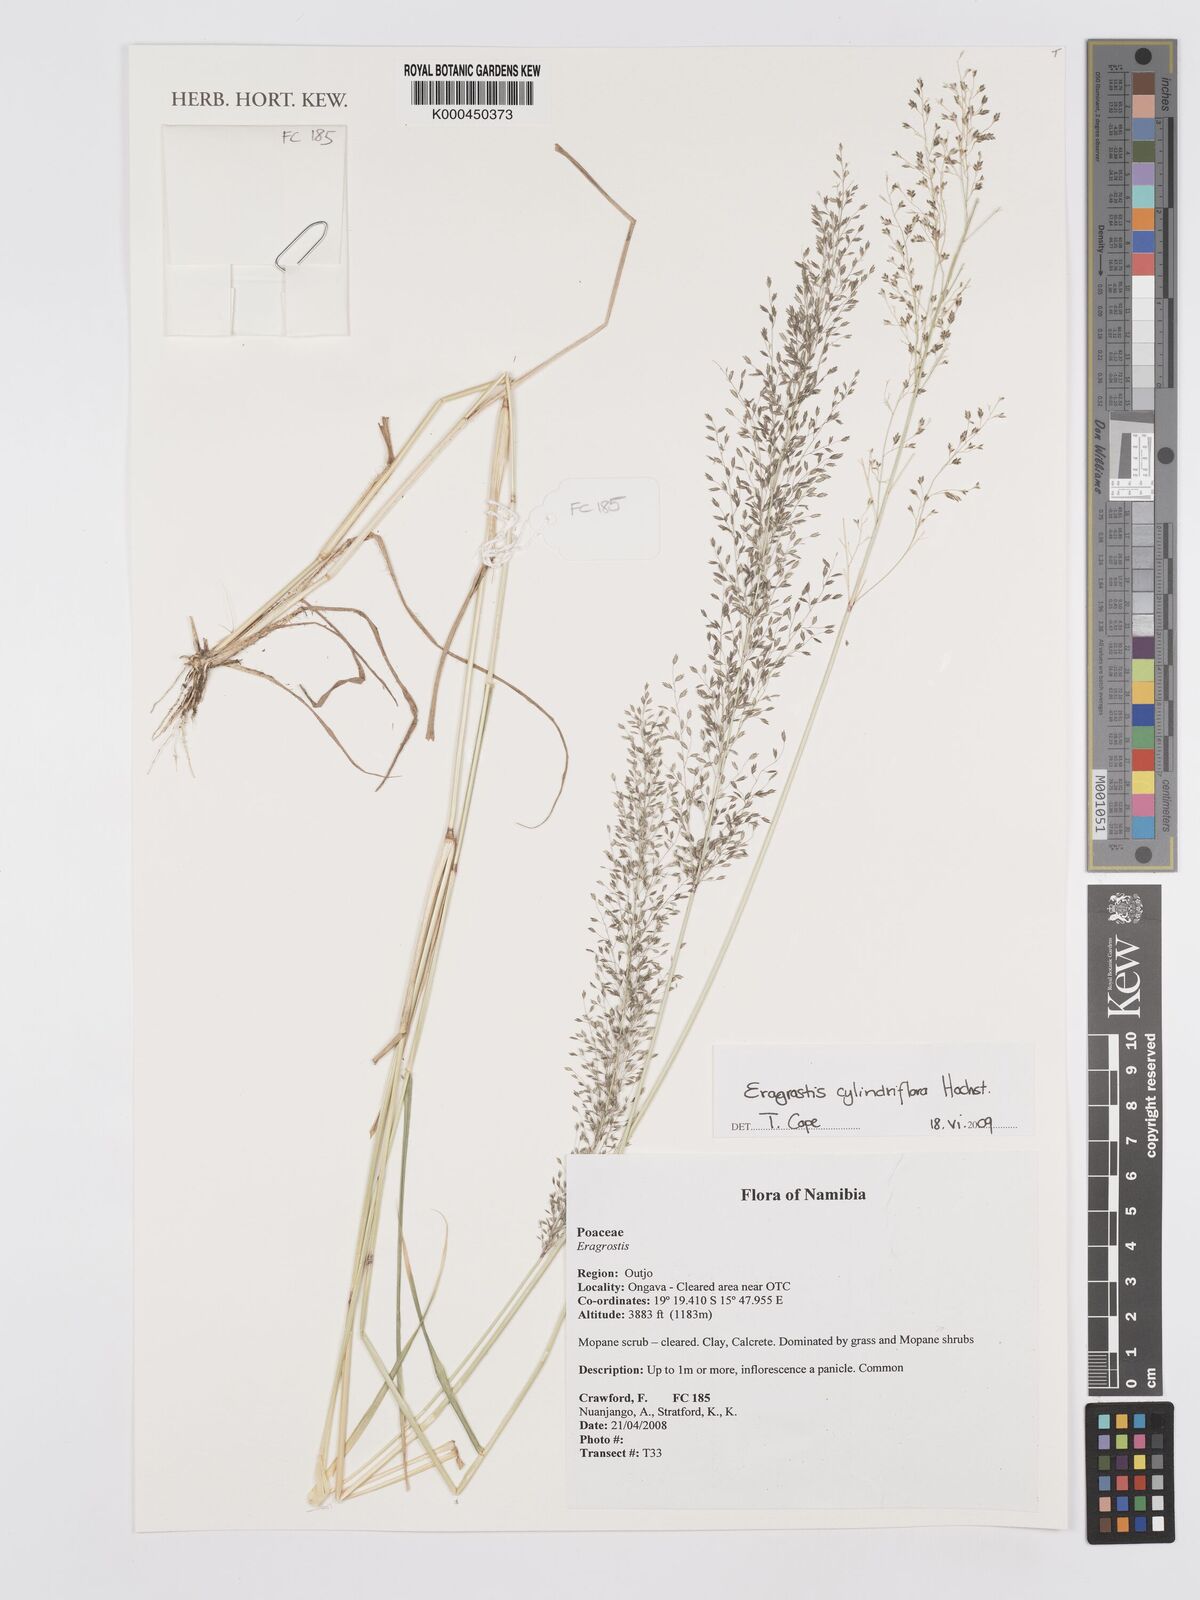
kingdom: Plantae
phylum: Tracheophyta
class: Liliopsida
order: Poales
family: Poaceae
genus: Eragrostis
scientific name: Eragrostis cylindriflora
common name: Cylinderflower lovegrass
